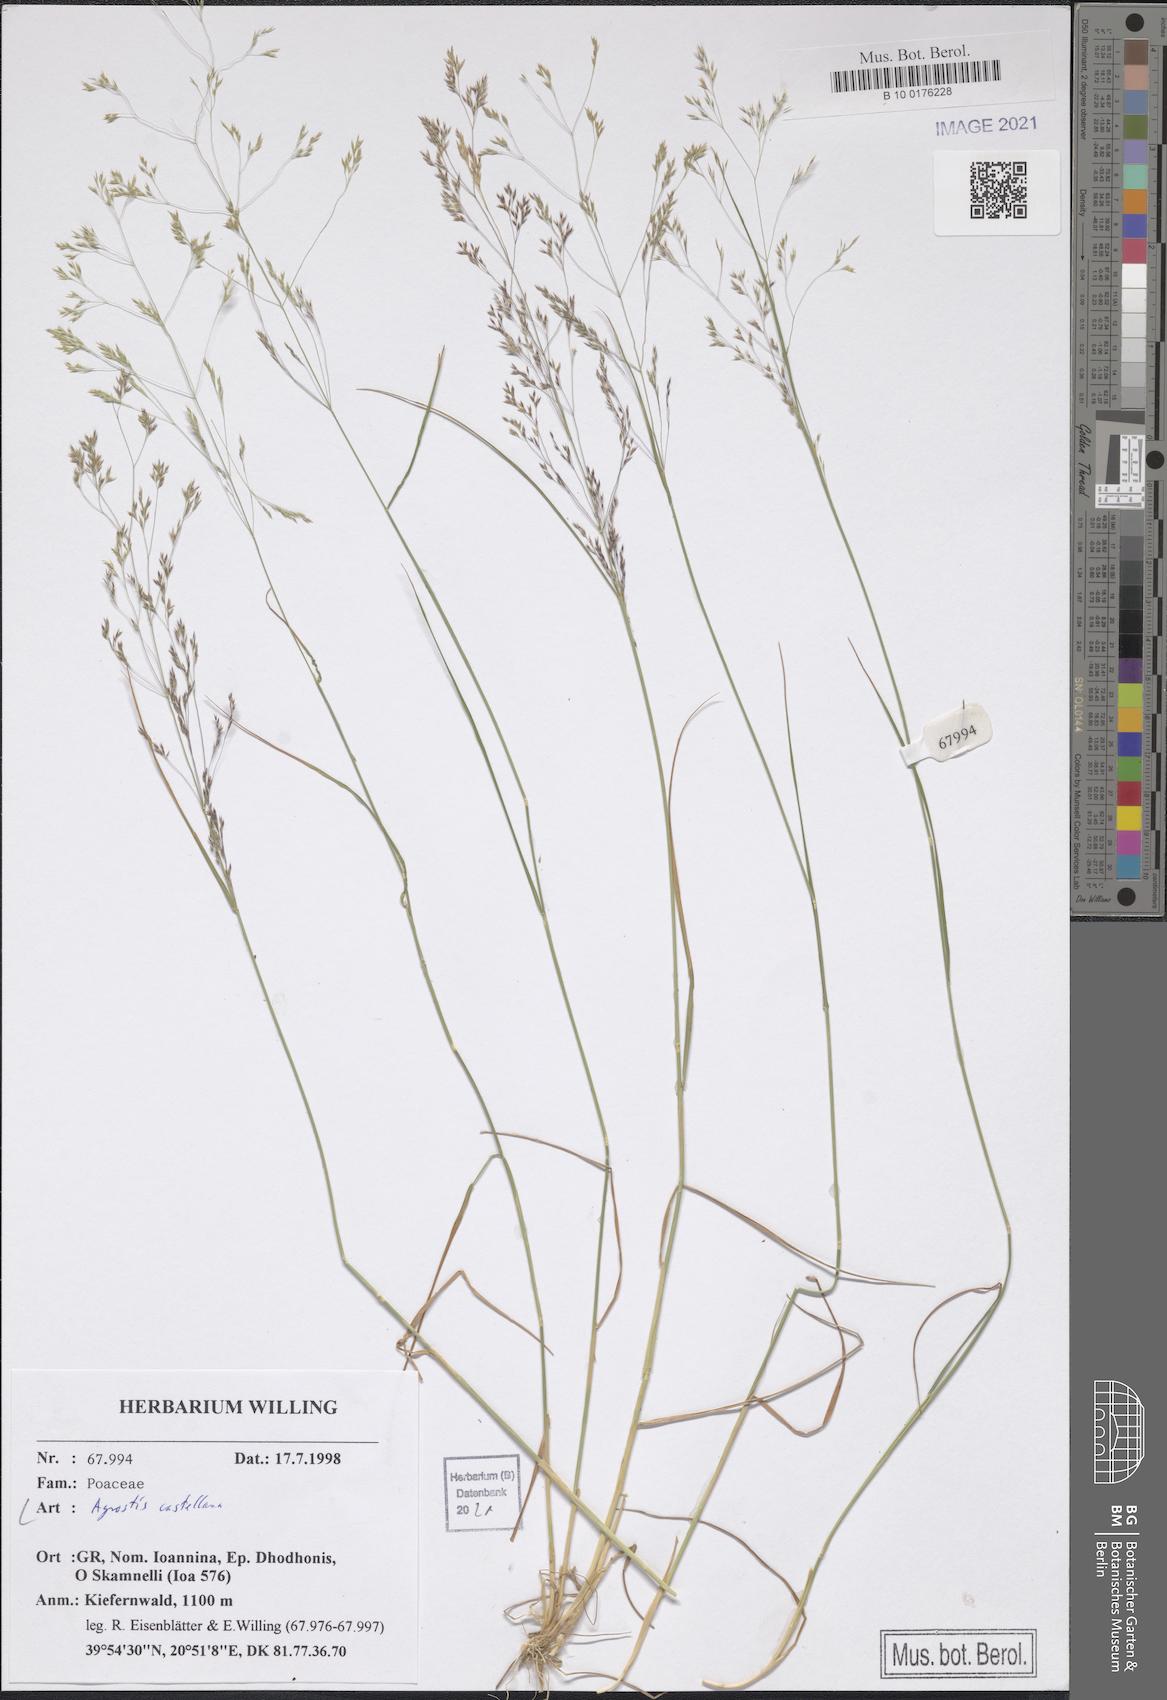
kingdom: Plantae
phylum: Tracheophyta
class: Liliopsida
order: Poales
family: Poaceae
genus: Agrostis
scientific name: Agrostis castellana
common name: Highland bent
